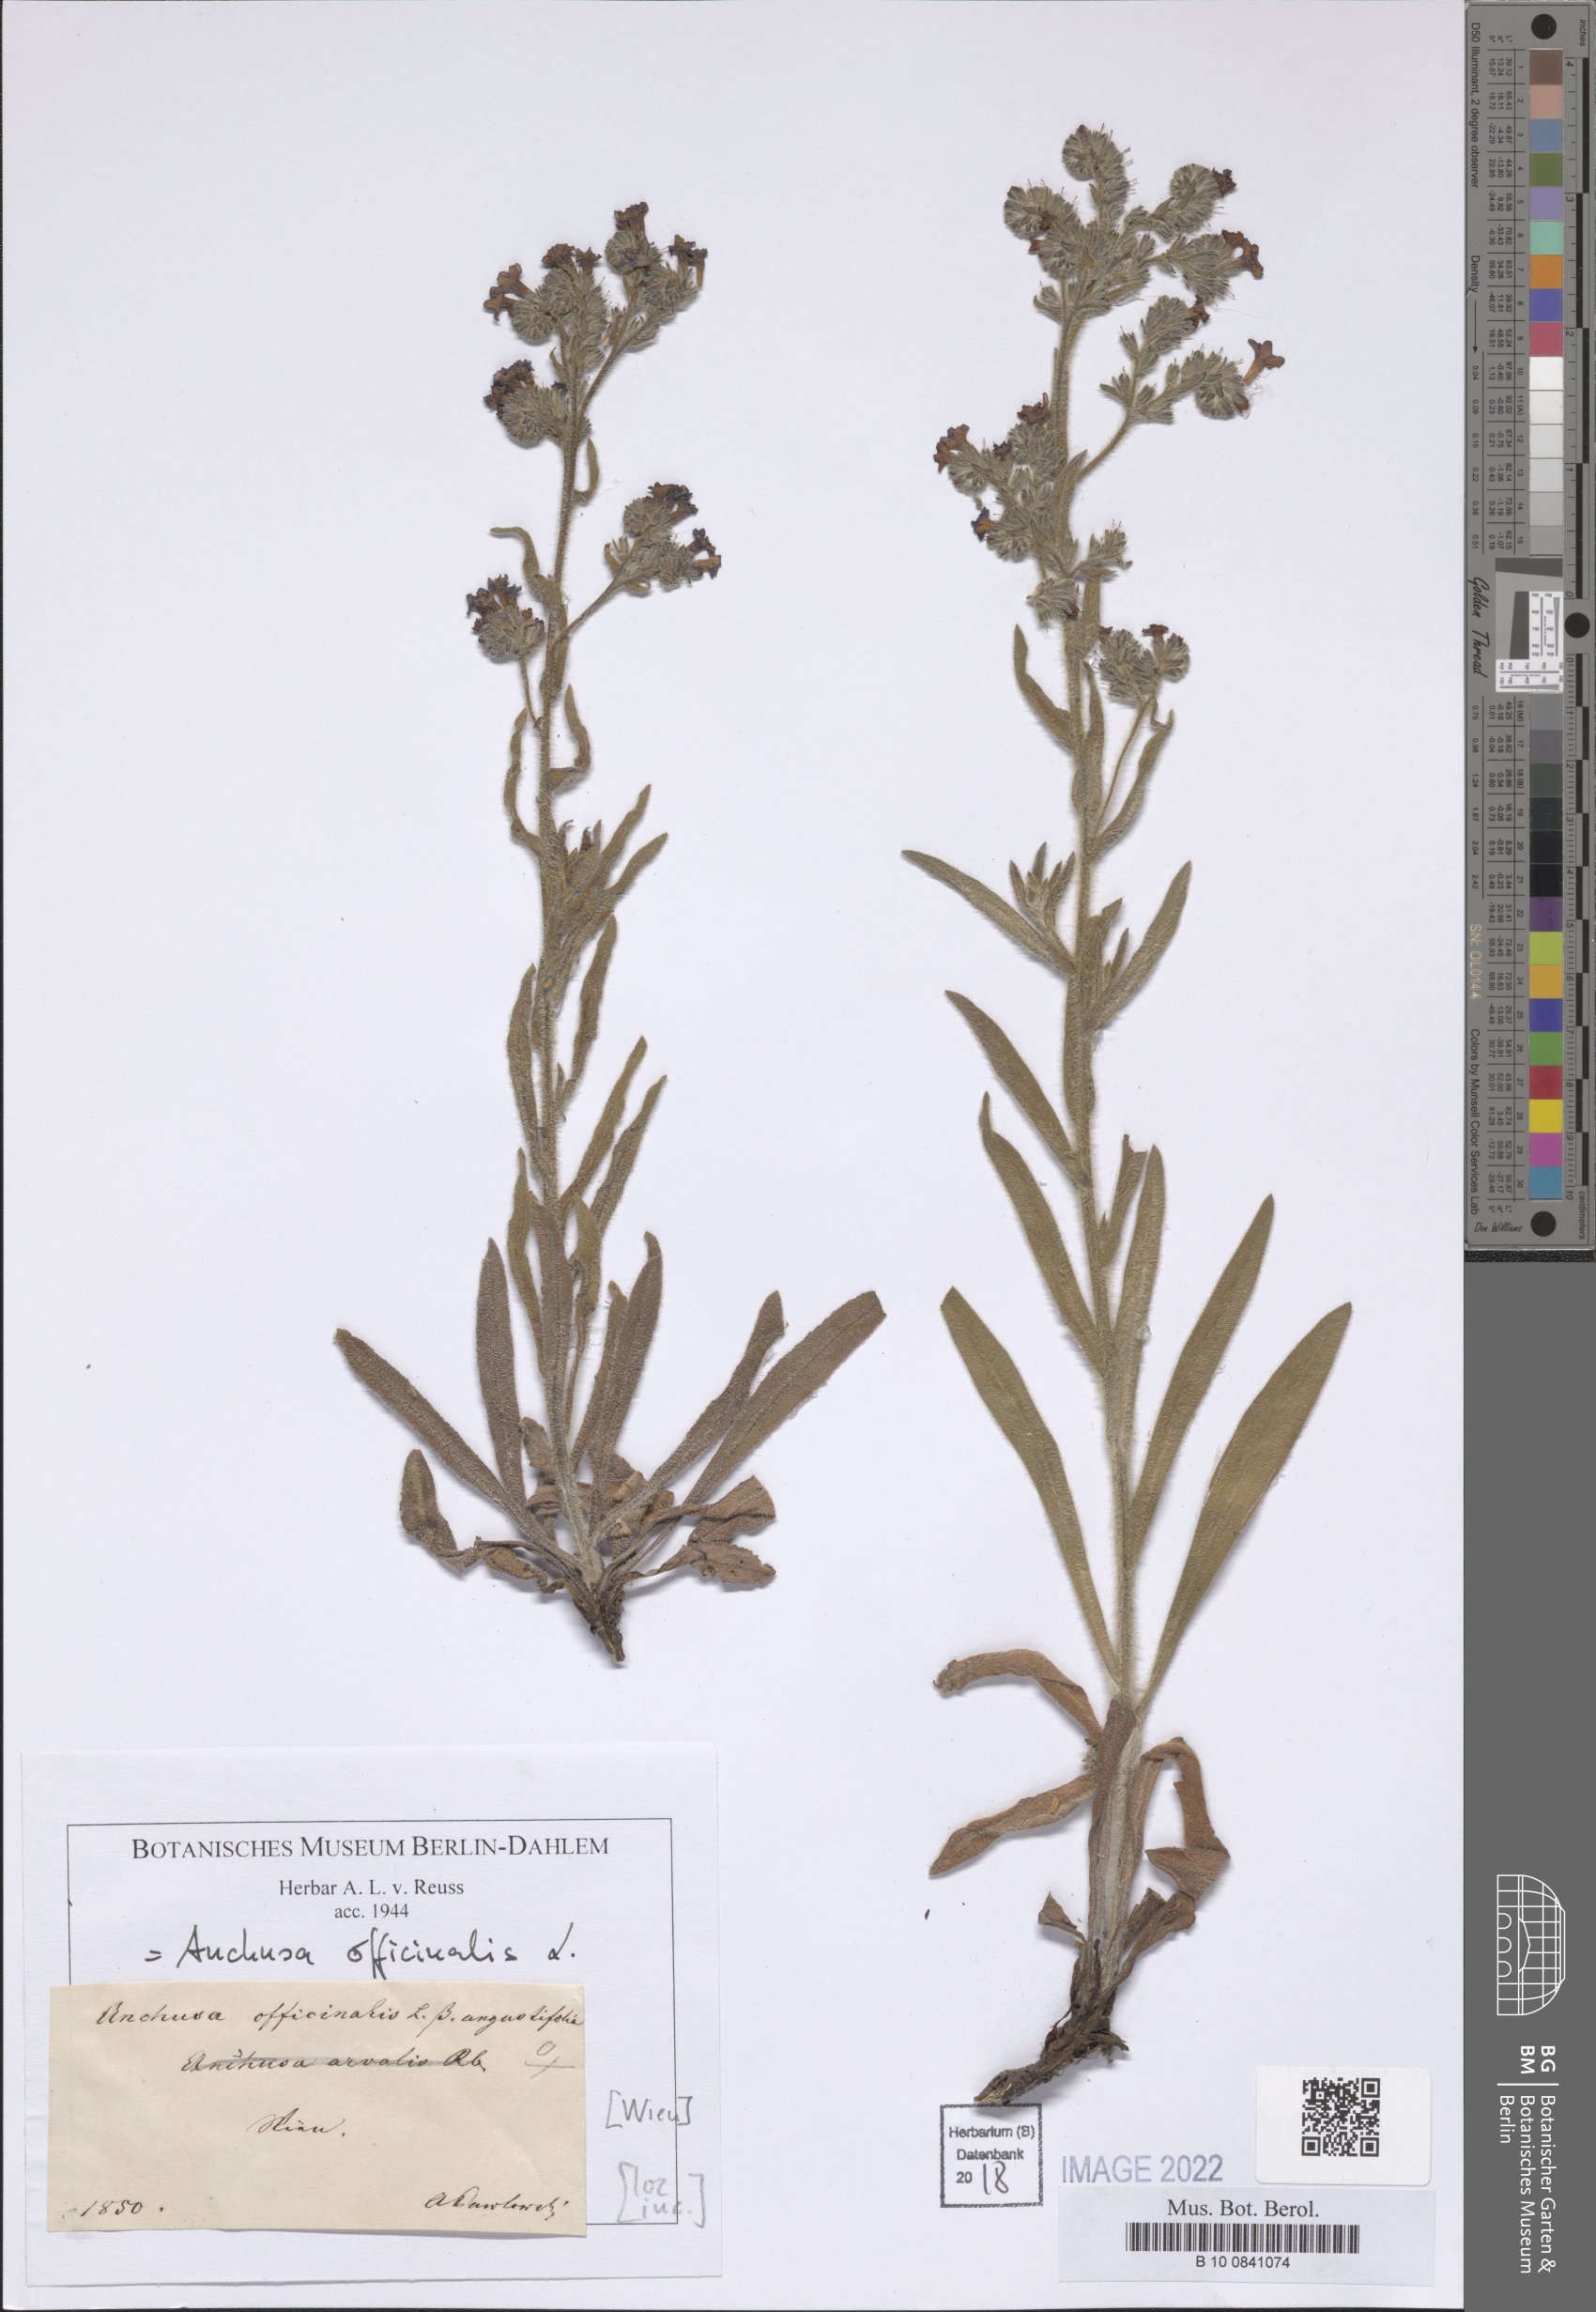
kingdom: Plantae
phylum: Tracheophyta
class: Magnoliopsida
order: Boraginales
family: Boraginaceae
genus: Anchusa
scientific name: Anchusa officinalis
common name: Alkanet
